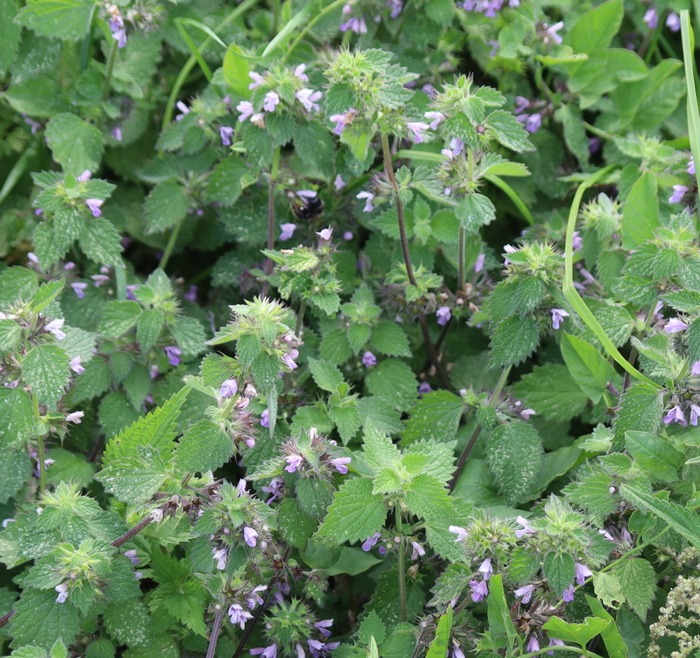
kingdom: Plantae
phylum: Tracheophyta
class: Magnoliopsida
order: Lamiales
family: Lamiaceae
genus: Ballota
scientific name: Ballota nigra
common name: Tandbæger
